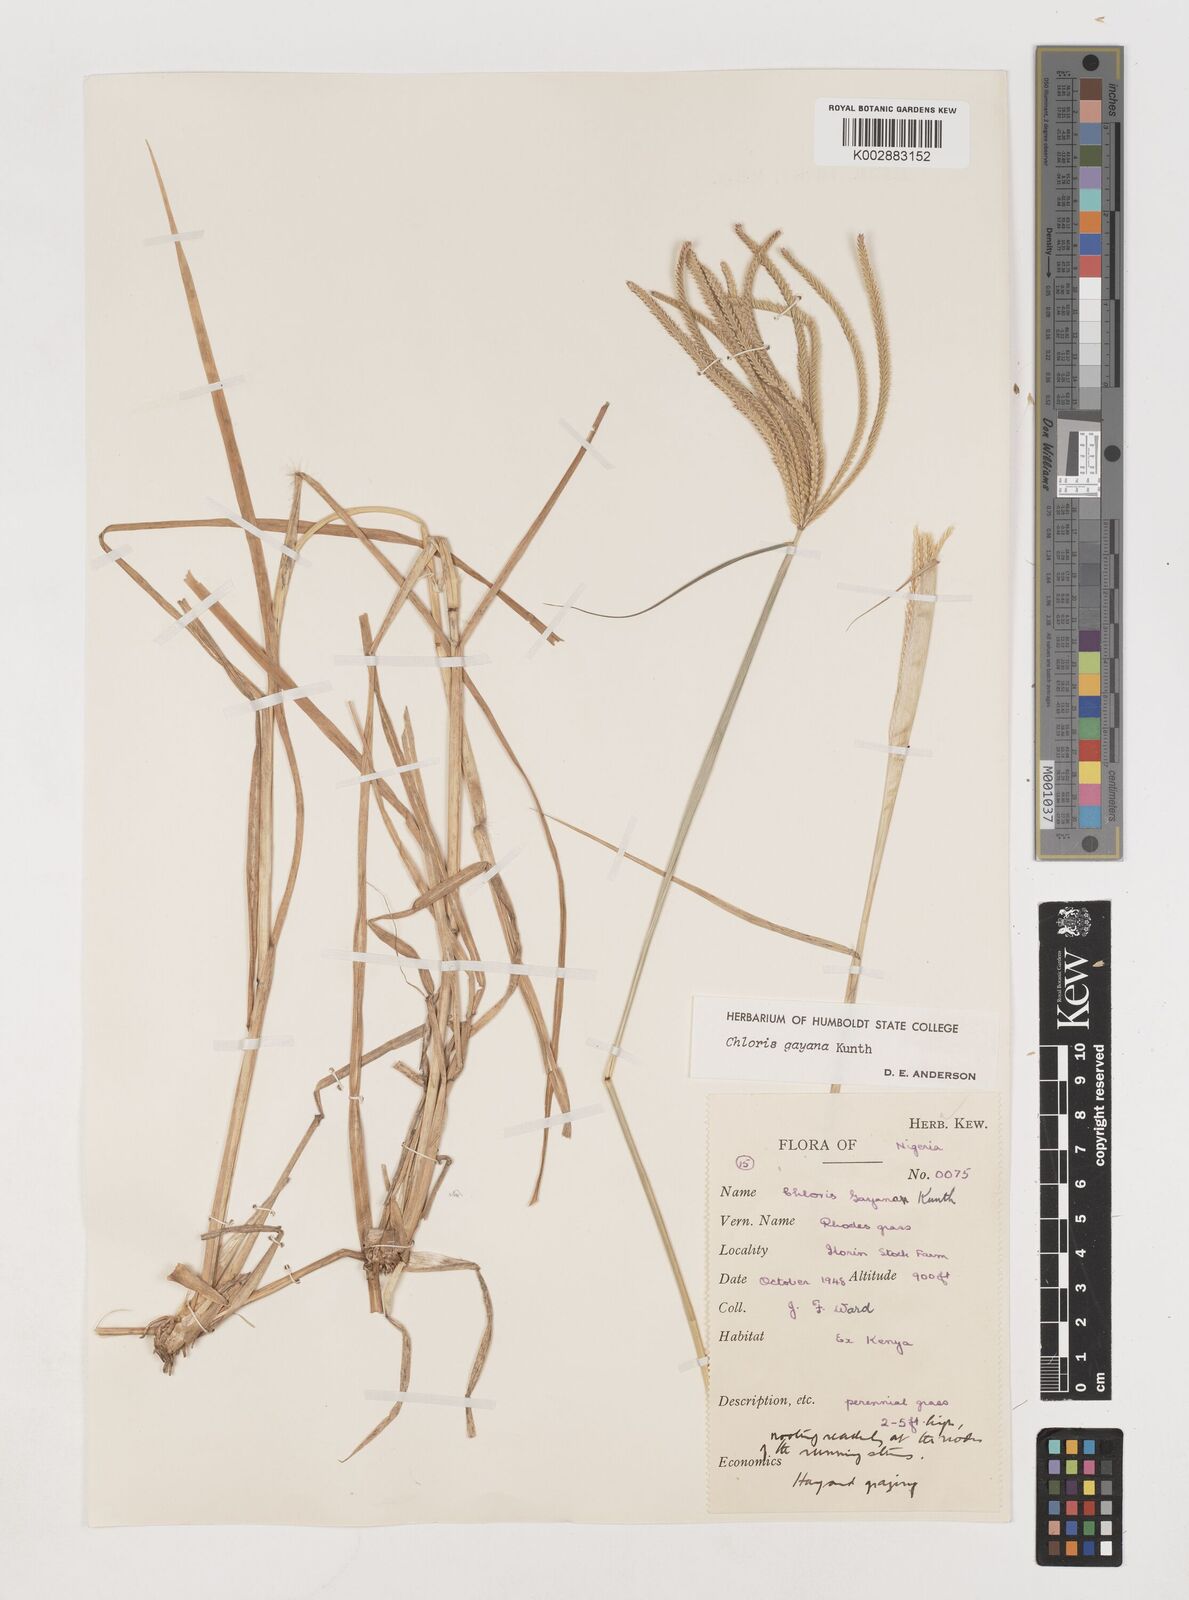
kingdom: Plantae
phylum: Tracheophyta
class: Liliopsida
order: Poales
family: Poaceae
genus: Chloris
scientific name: Chloris gayana
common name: Rhodes grass
